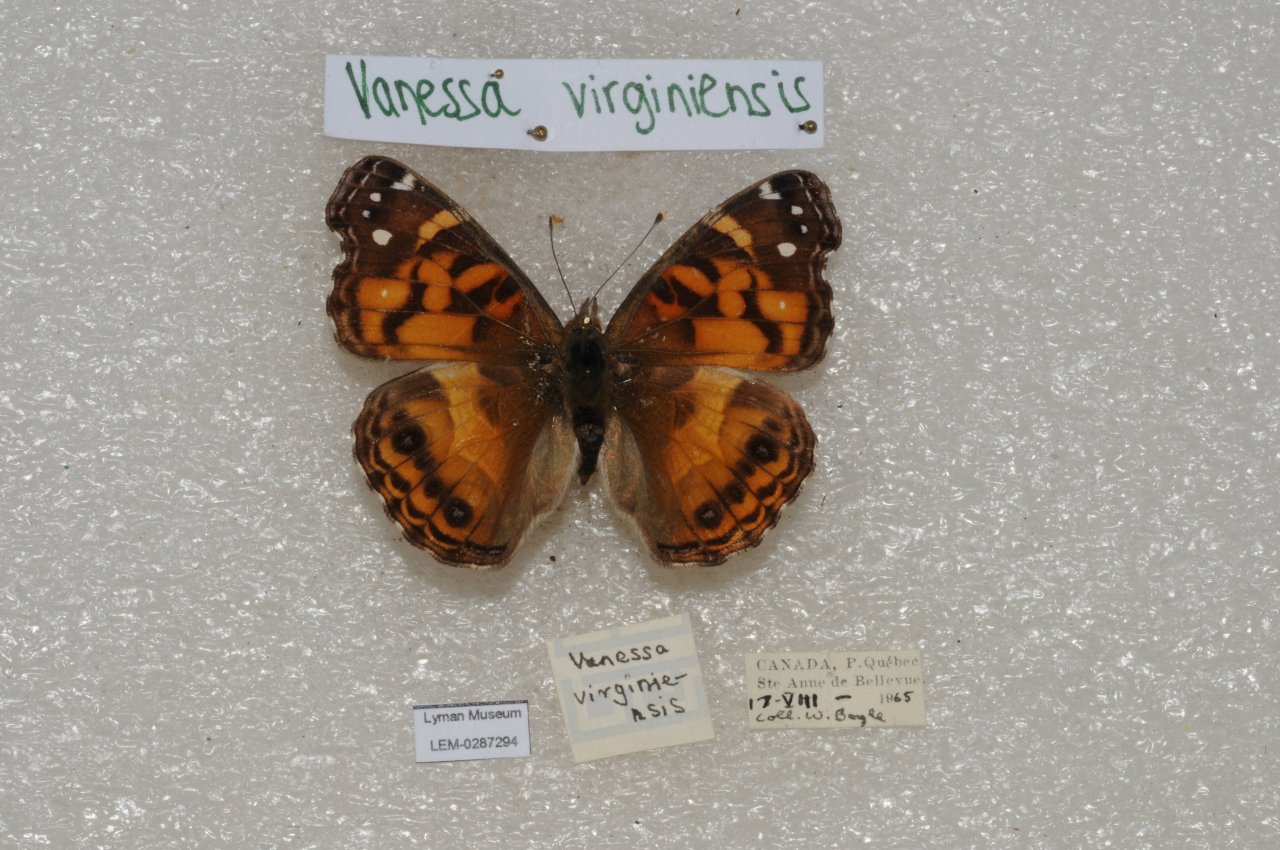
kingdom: Animalia
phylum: Arthropoda
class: Insecta
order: Lepidoptera
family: Nymphalidae
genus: Vanessa
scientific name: Vanessa virginiensis
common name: American Lady
